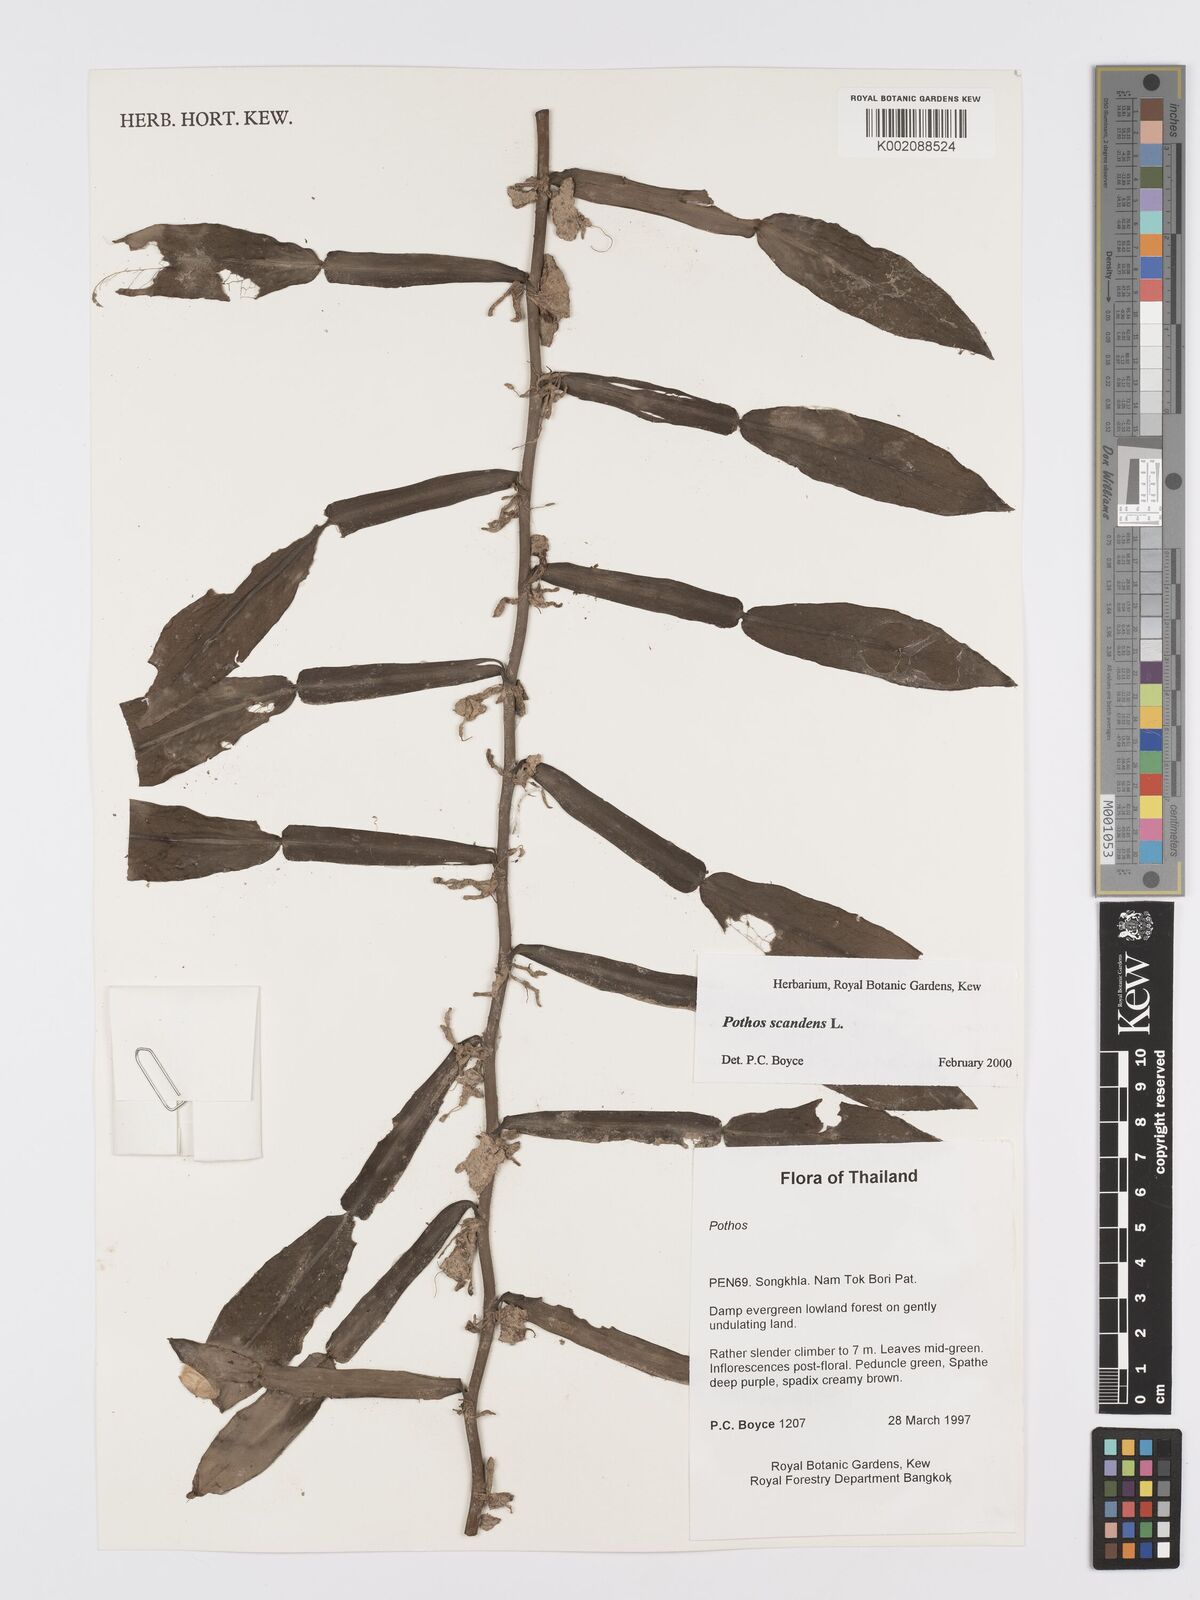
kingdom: Plantae
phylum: Tracheophyta
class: Liliopsida
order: Alismatales
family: Araceae
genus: Pothos
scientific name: Pothos scandens
